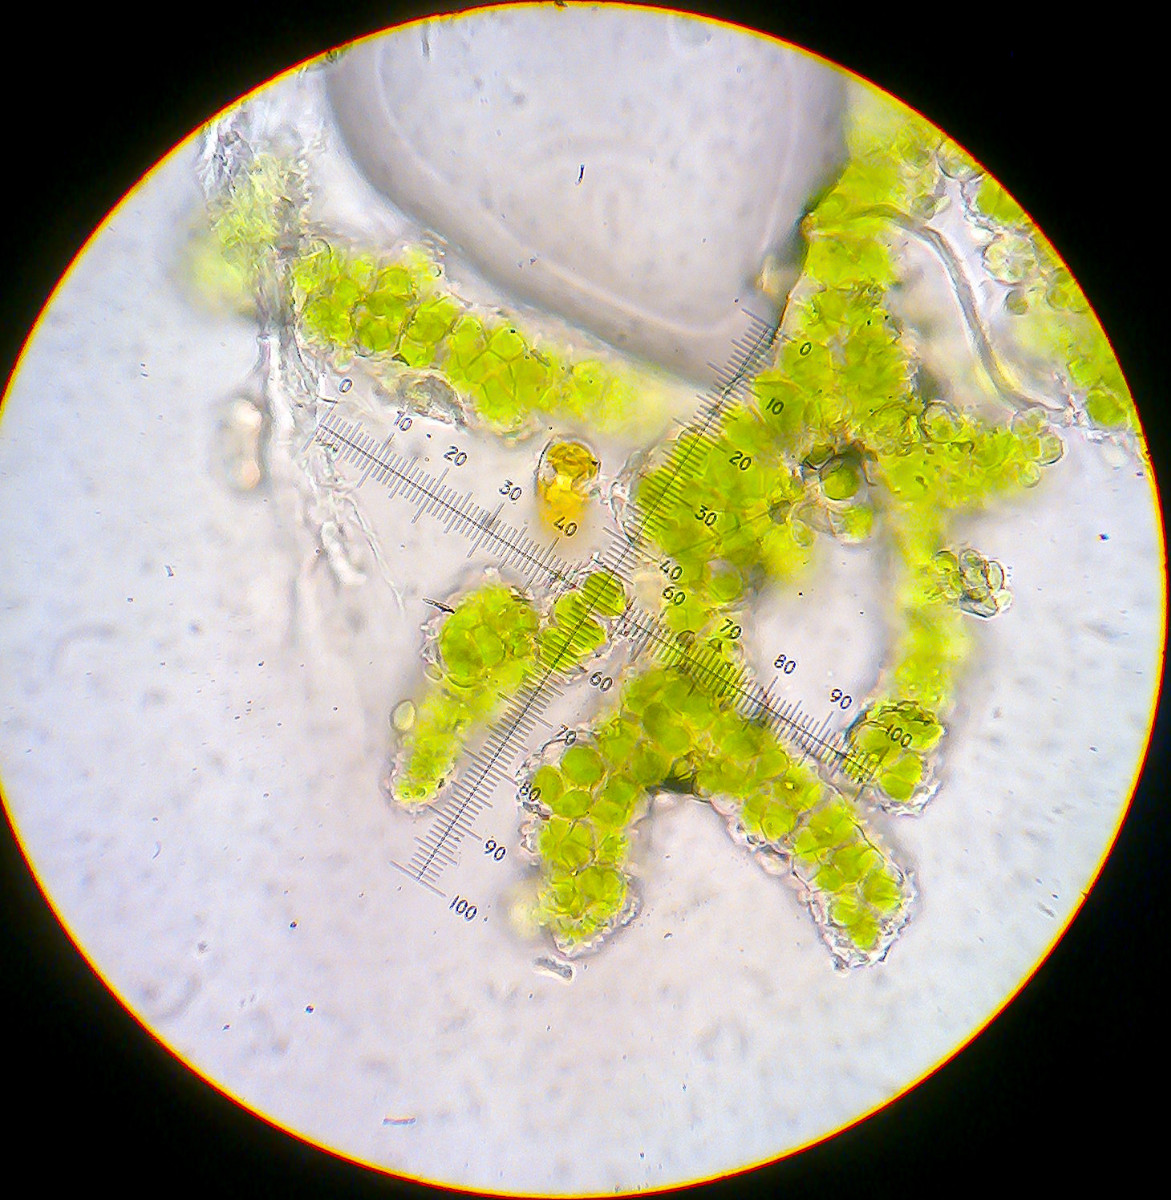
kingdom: Fungi
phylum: Ascomycota
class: Eurotiomycetes
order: Verrucariales
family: Verrucariaceae
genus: Psoroglaena
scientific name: Psoroglaena stigonemoides
